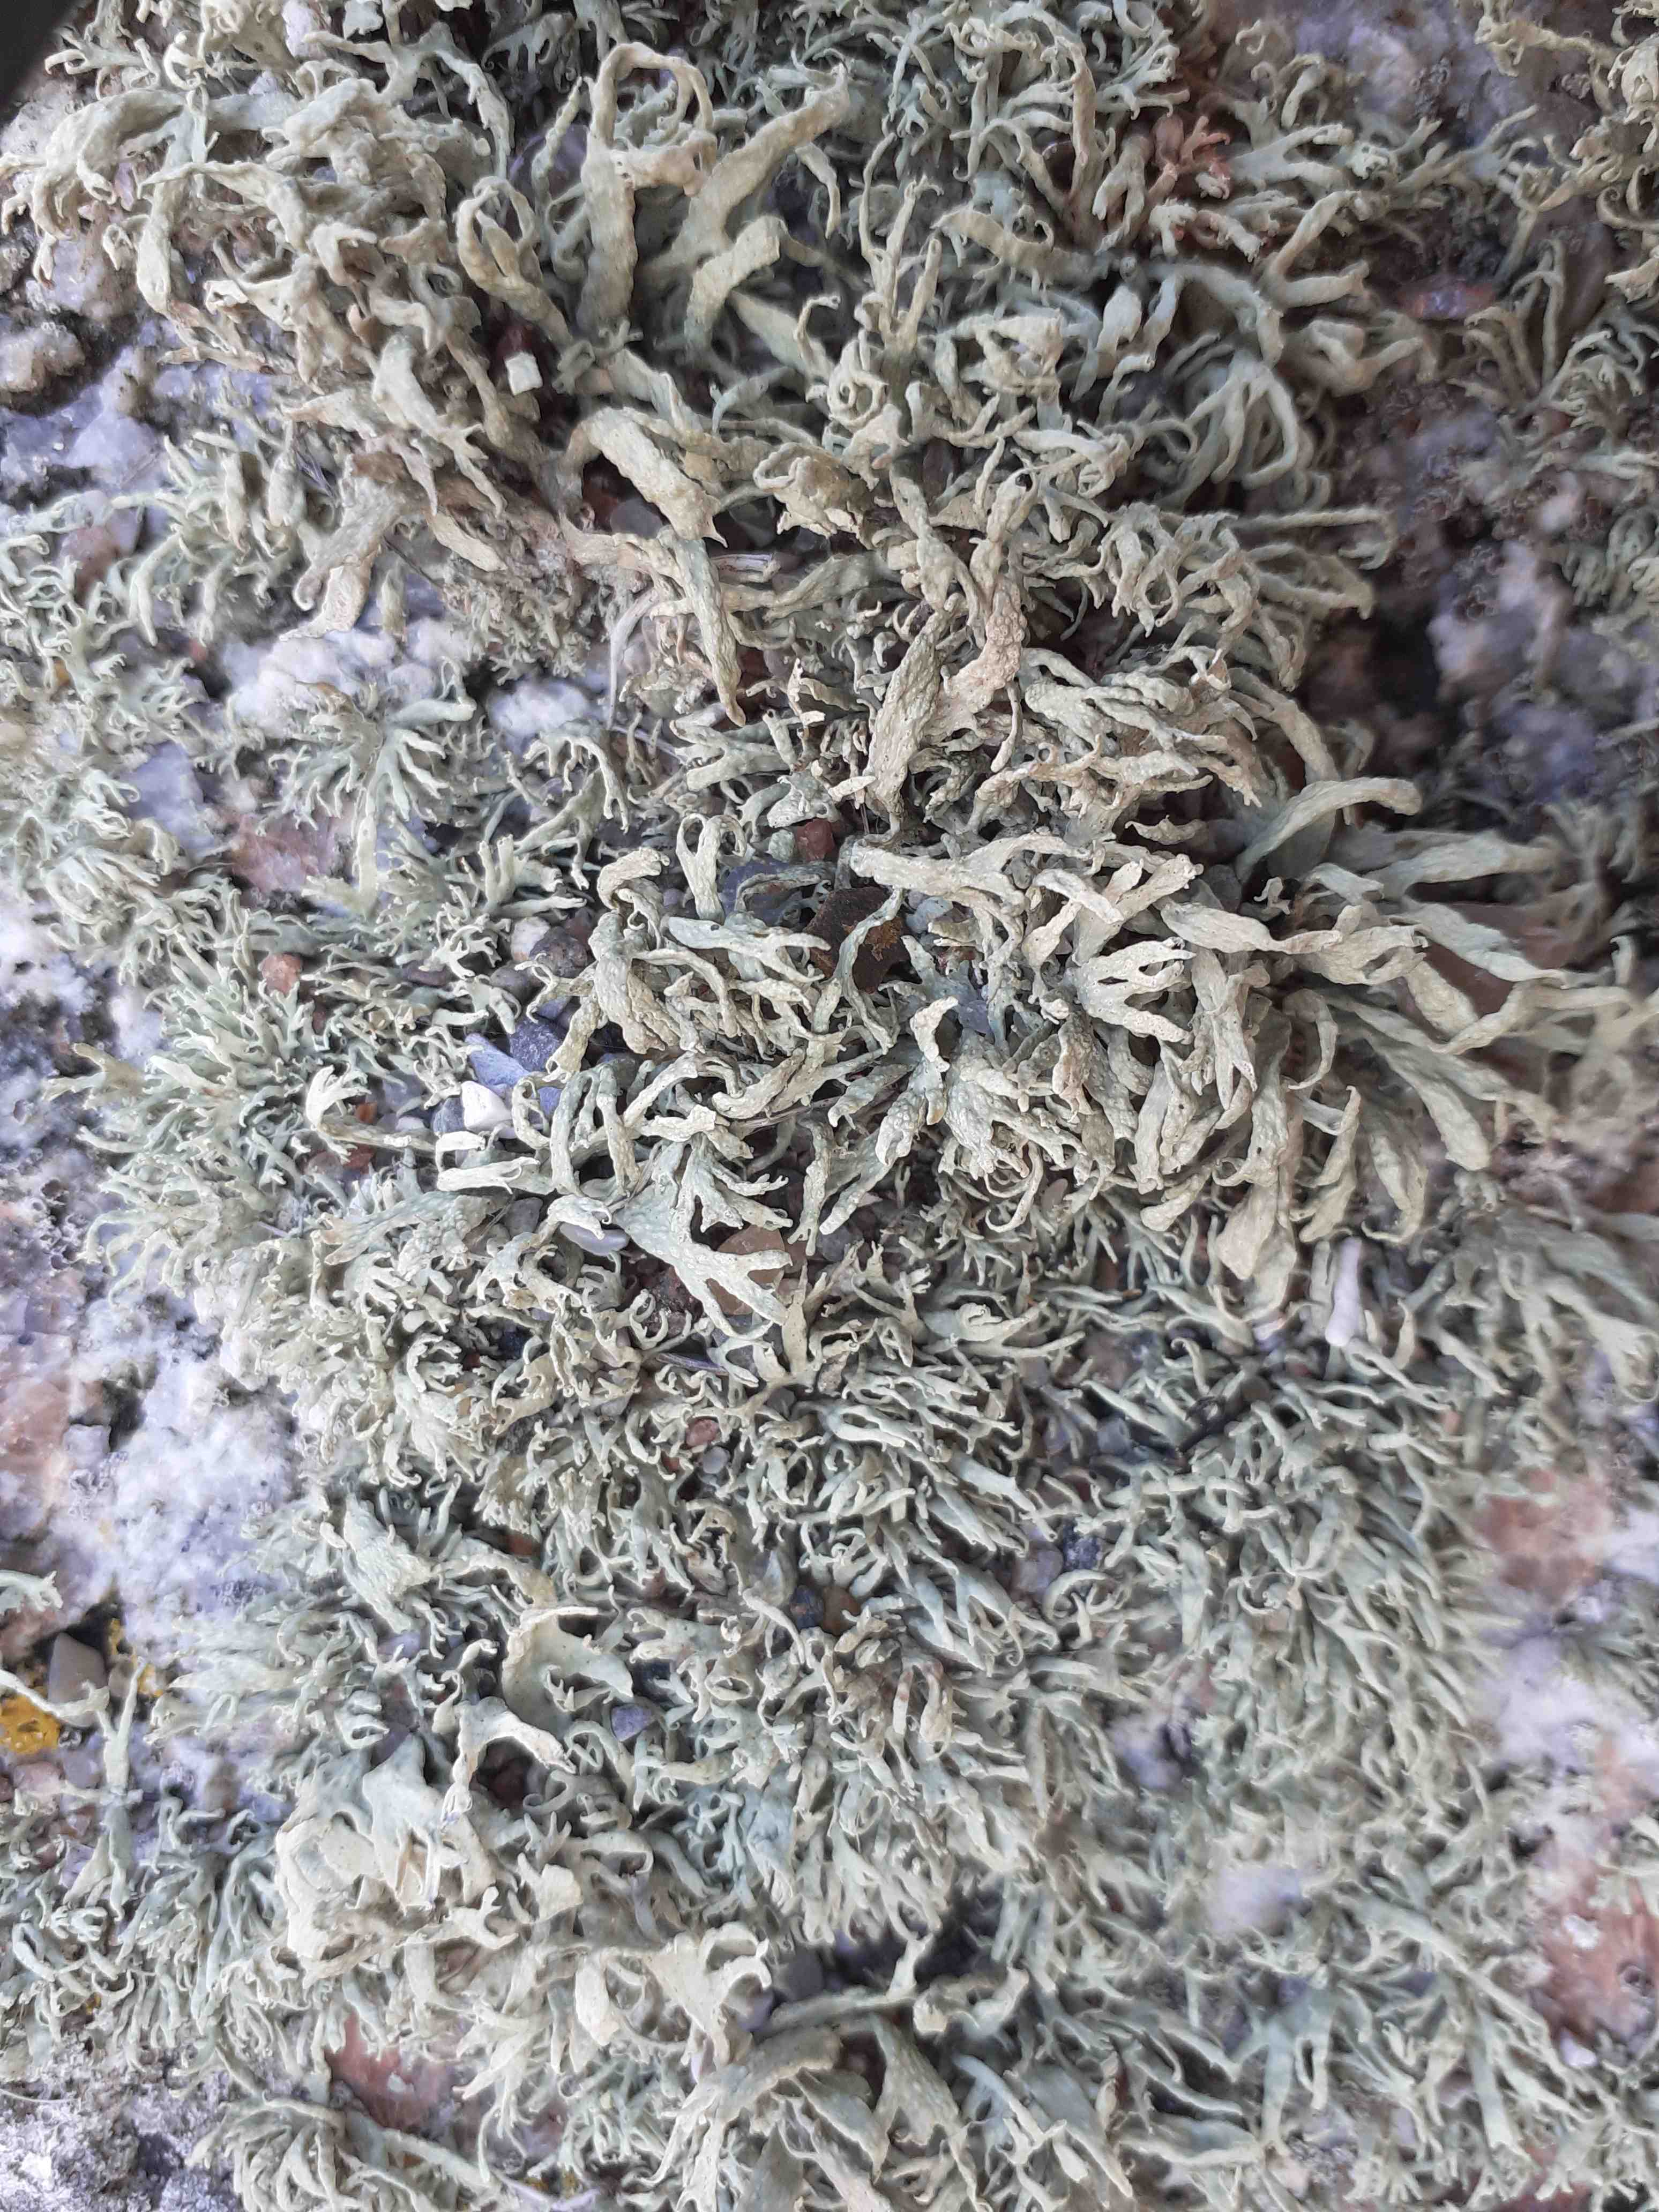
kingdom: Fungi
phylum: Ascomycota
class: Lecanoromycetes
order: Lecanorales
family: Ramalinaceae
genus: Ramalina
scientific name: Ramalina siliquosa
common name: klippe-grenlav
